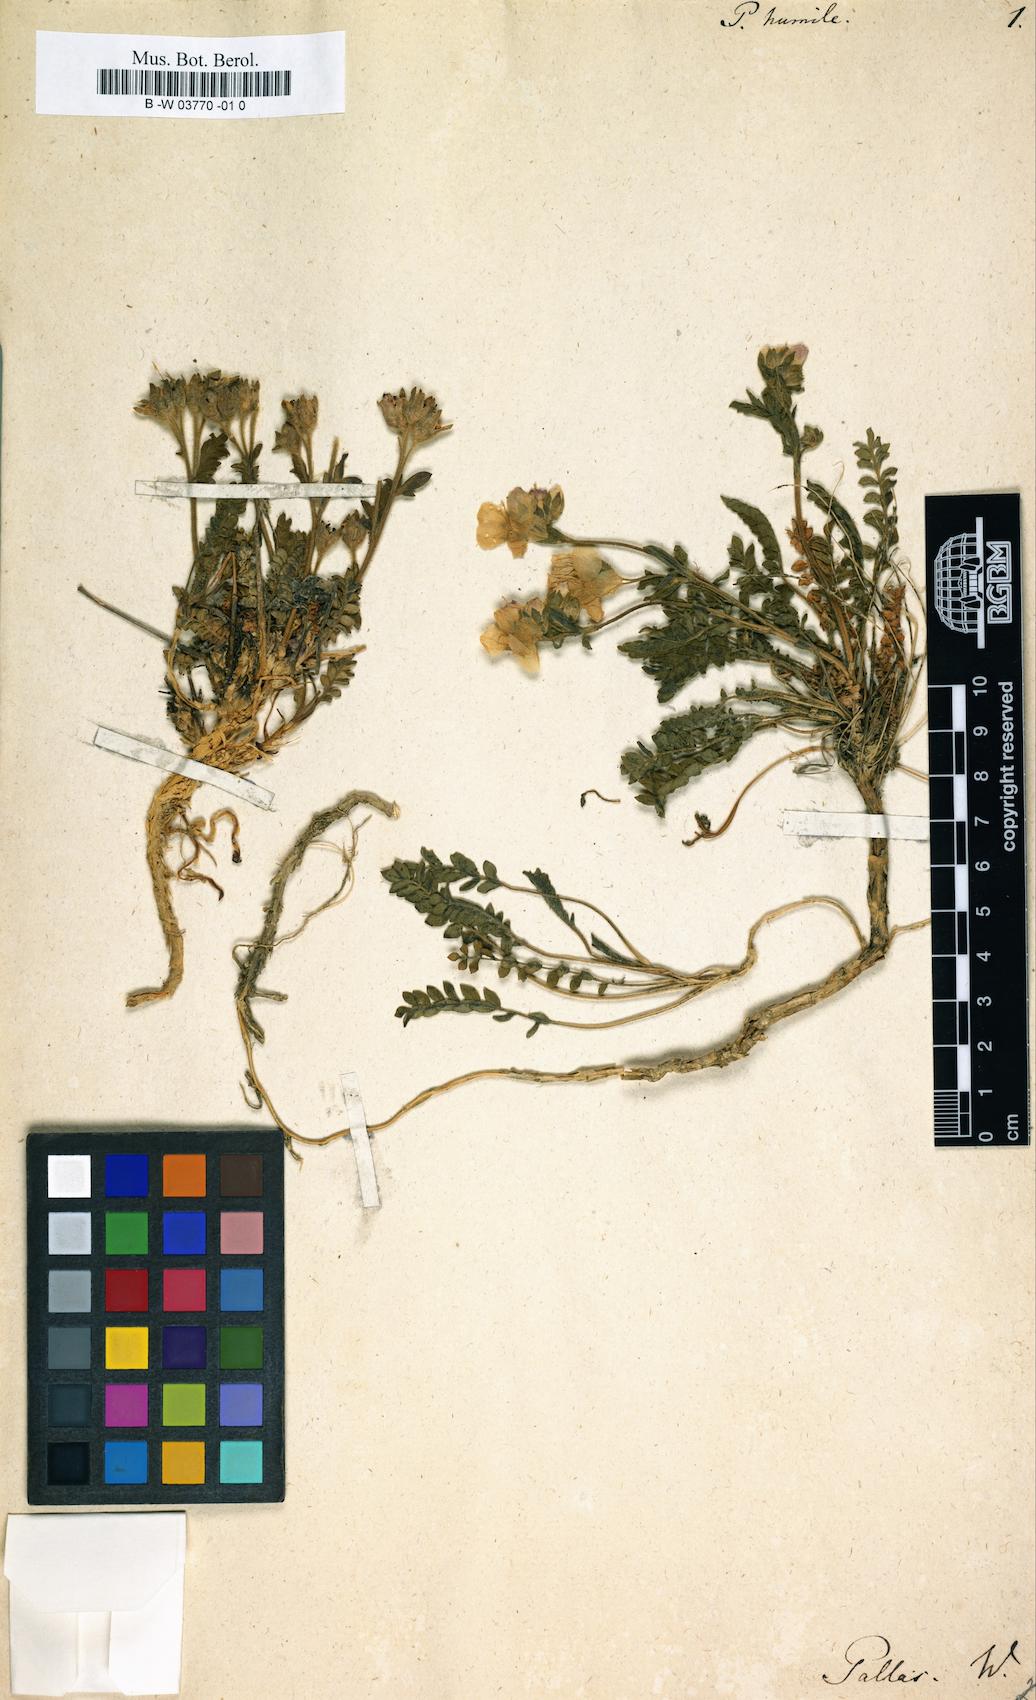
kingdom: Plantae
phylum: Tracheophyta
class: Magnoliopsida
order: Ericales
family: Polemoniaceae
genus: Polemonium
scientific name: Polemonium
